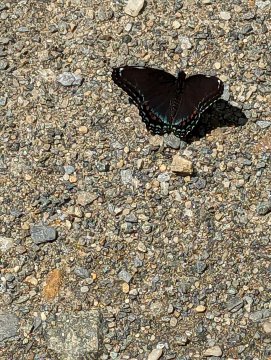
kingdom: Animalia
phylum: Arthropoda
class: Insecta
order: Lepidoptera
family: Nymphalidae
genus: Limenitis
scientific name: Limenitis arthemis
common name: Red-spotted Admiral
